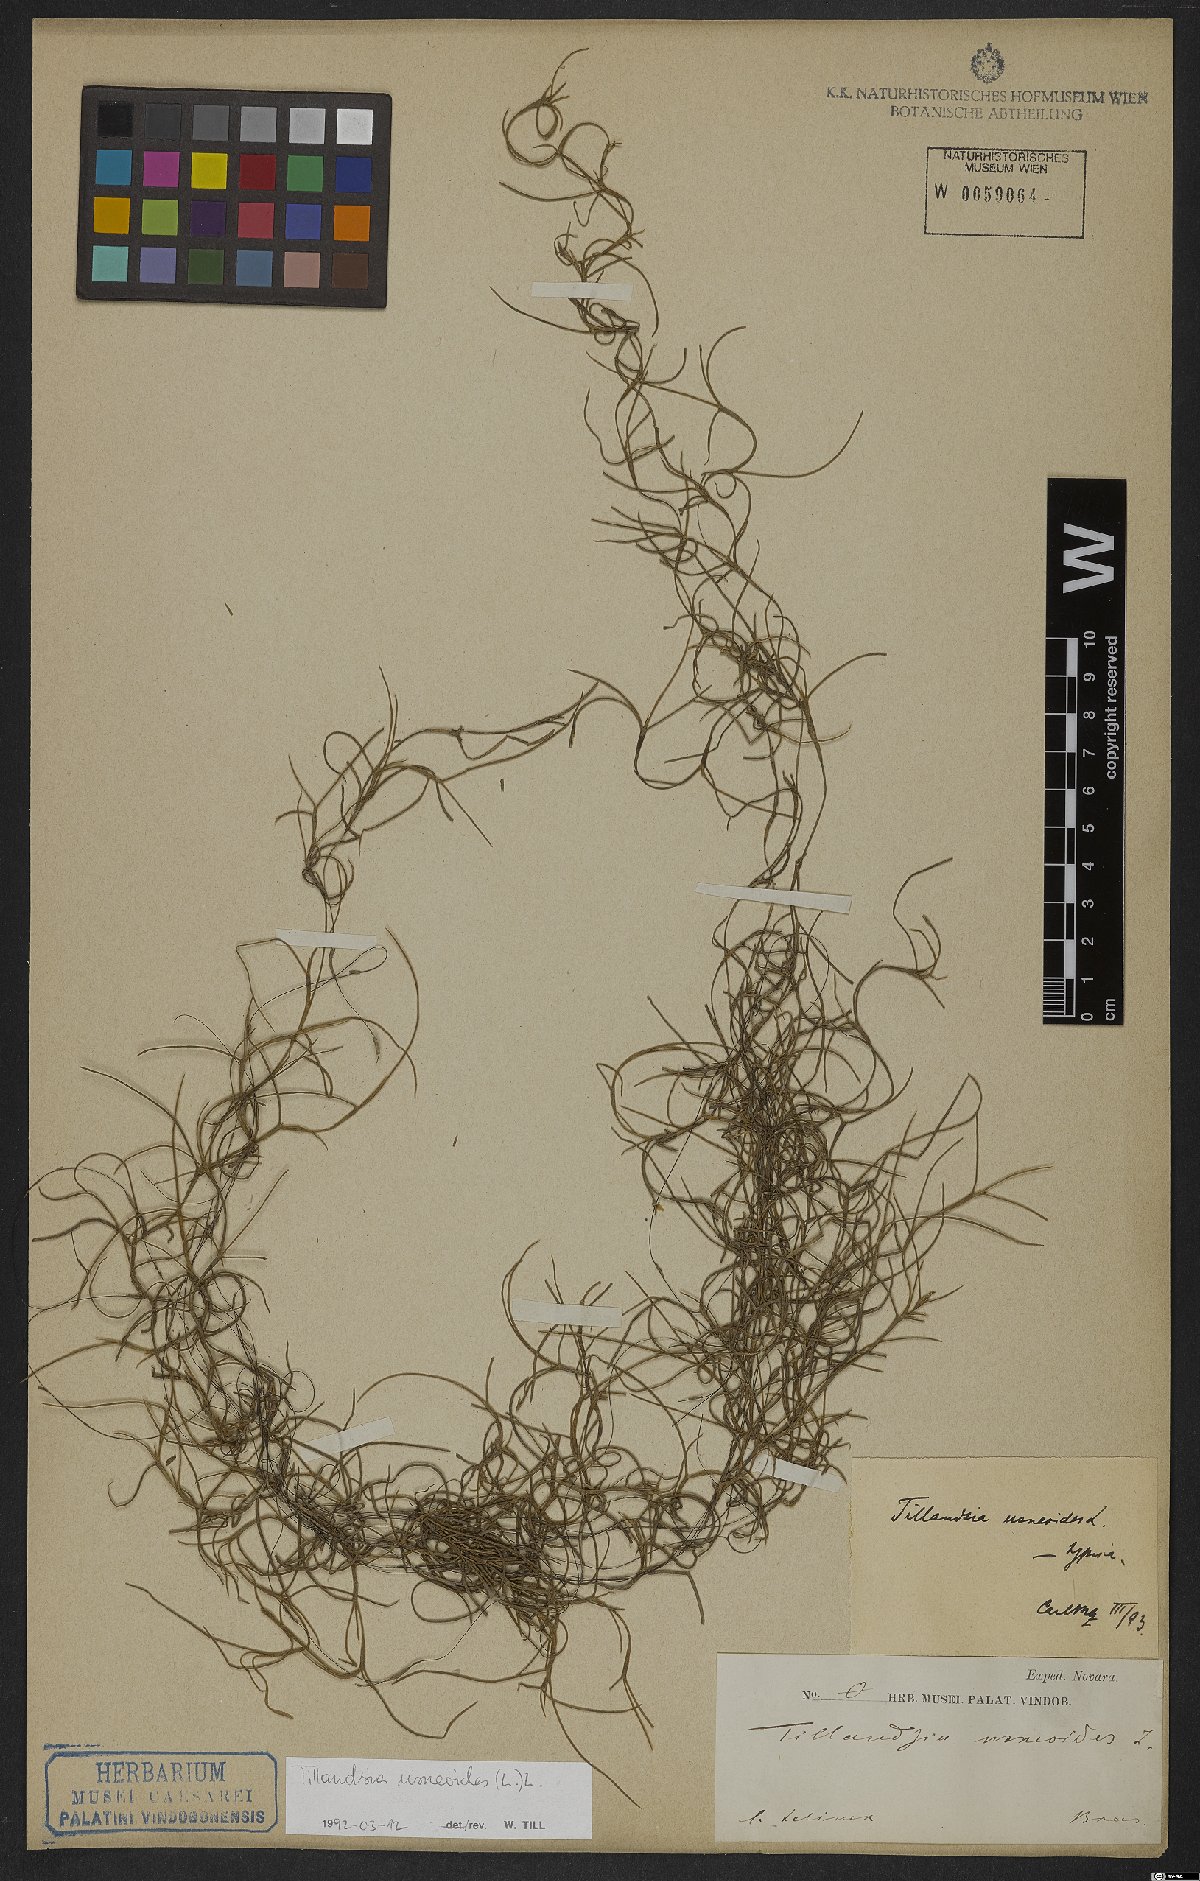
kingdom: Plantae
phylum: Tracheophyta
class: Liliopsida
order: Poales
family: Bromeliaceae
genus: Tillandsia
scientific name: Tillandsia usneoides
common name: Spanish moss
